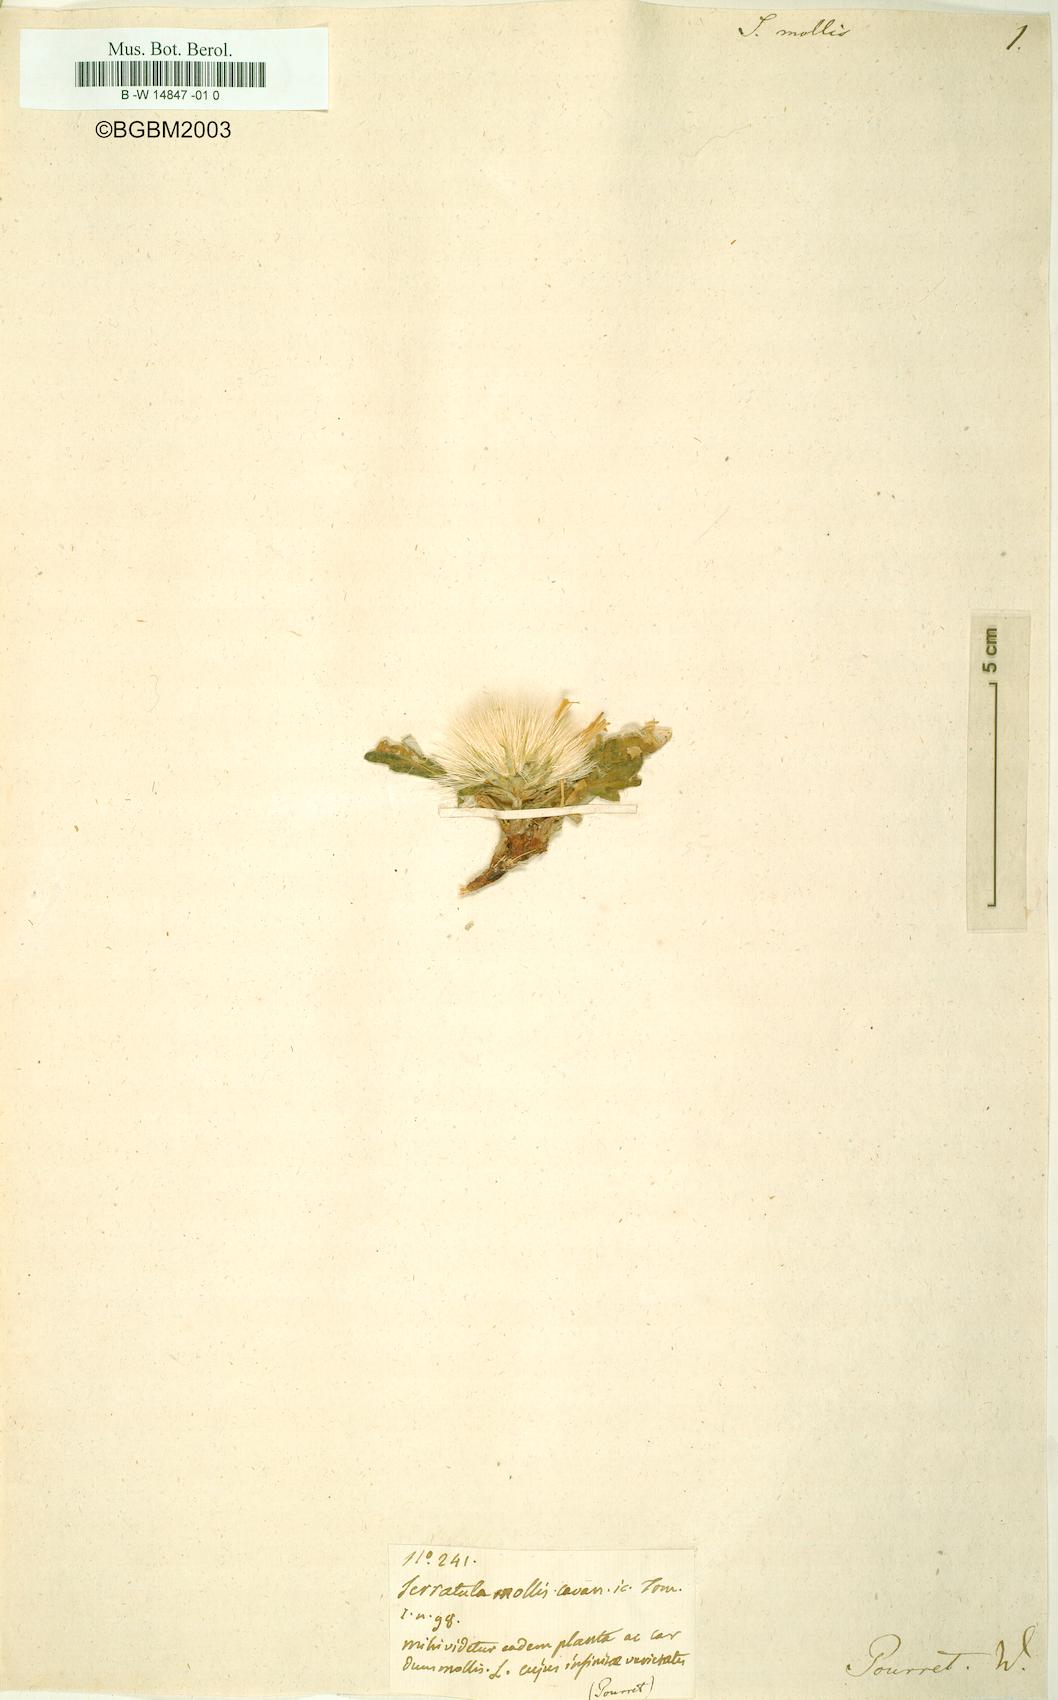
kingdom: Plantae
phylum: Tracheophyta
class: Magnoliopsida
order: Asterales
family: Asteraceae
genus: Jurinea
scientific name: Jurinea
